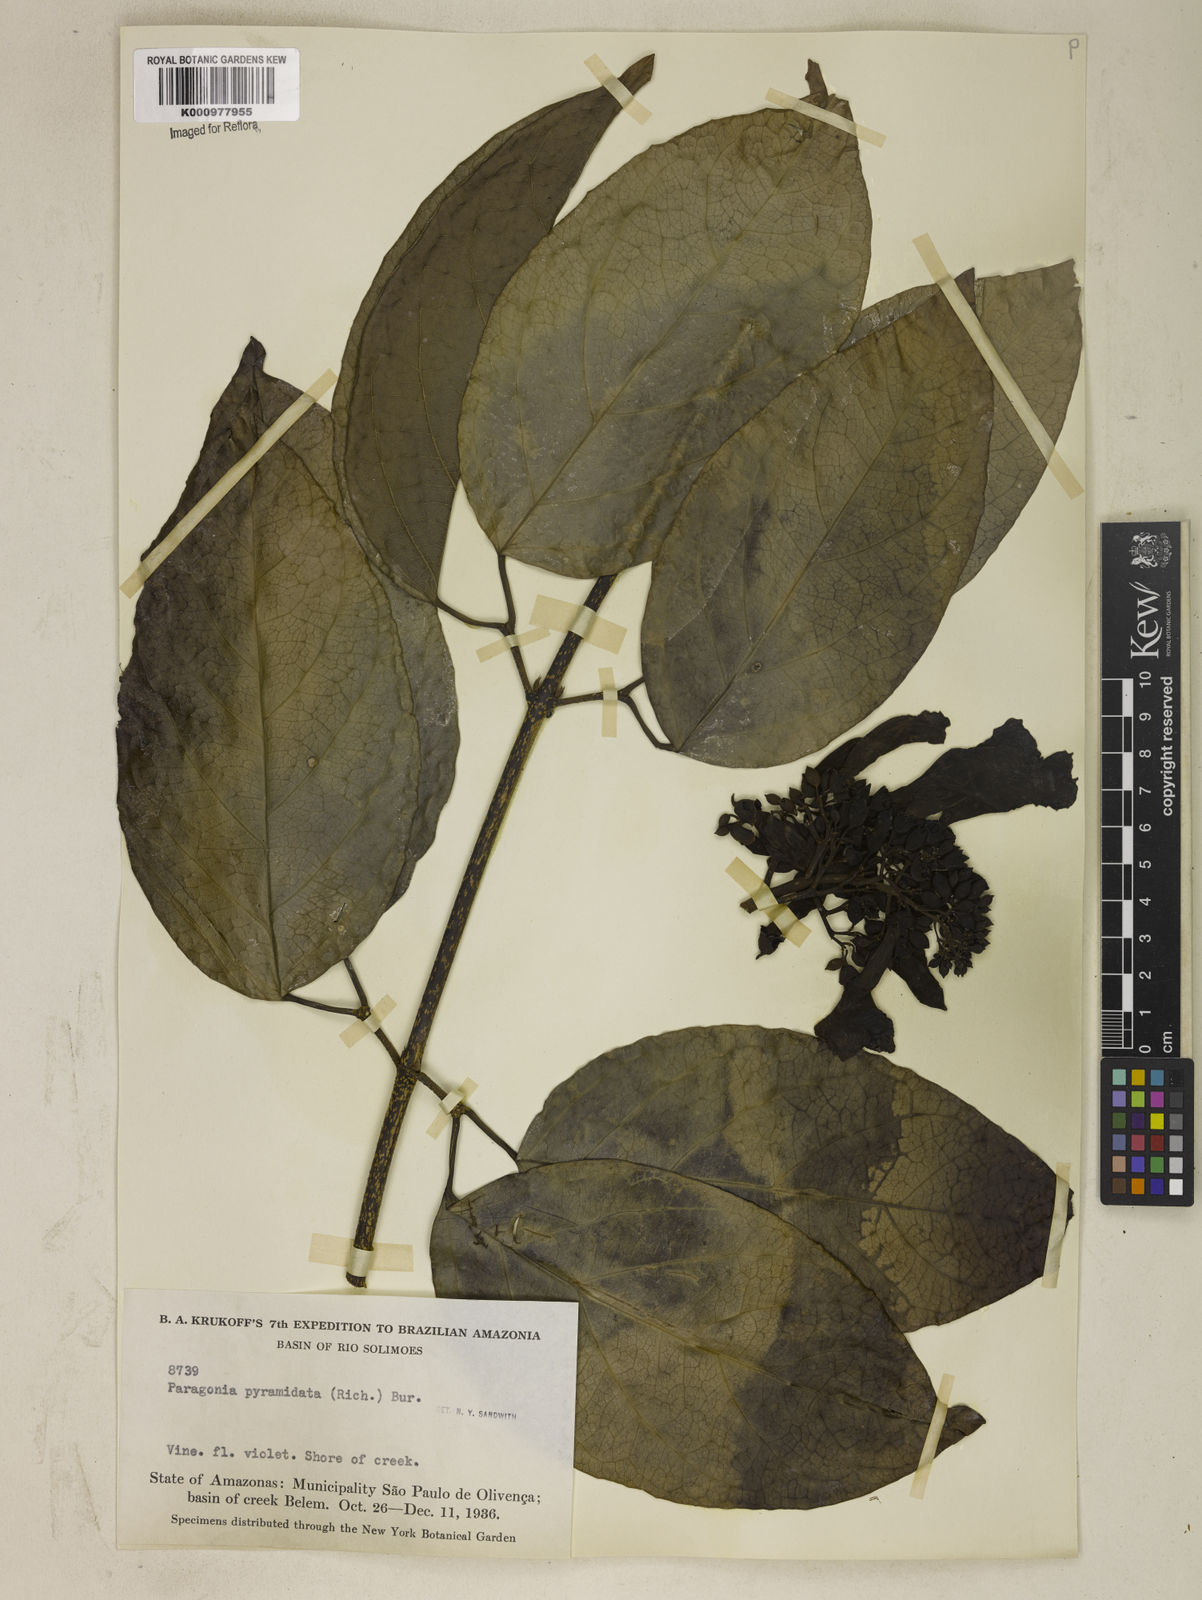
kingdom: Plantae
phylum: Tracheophyta
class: Magnoliopsida
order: Lamiales
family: Bignoniaceae
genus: Tanaecium
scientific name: Tanaecium pyramidatum
